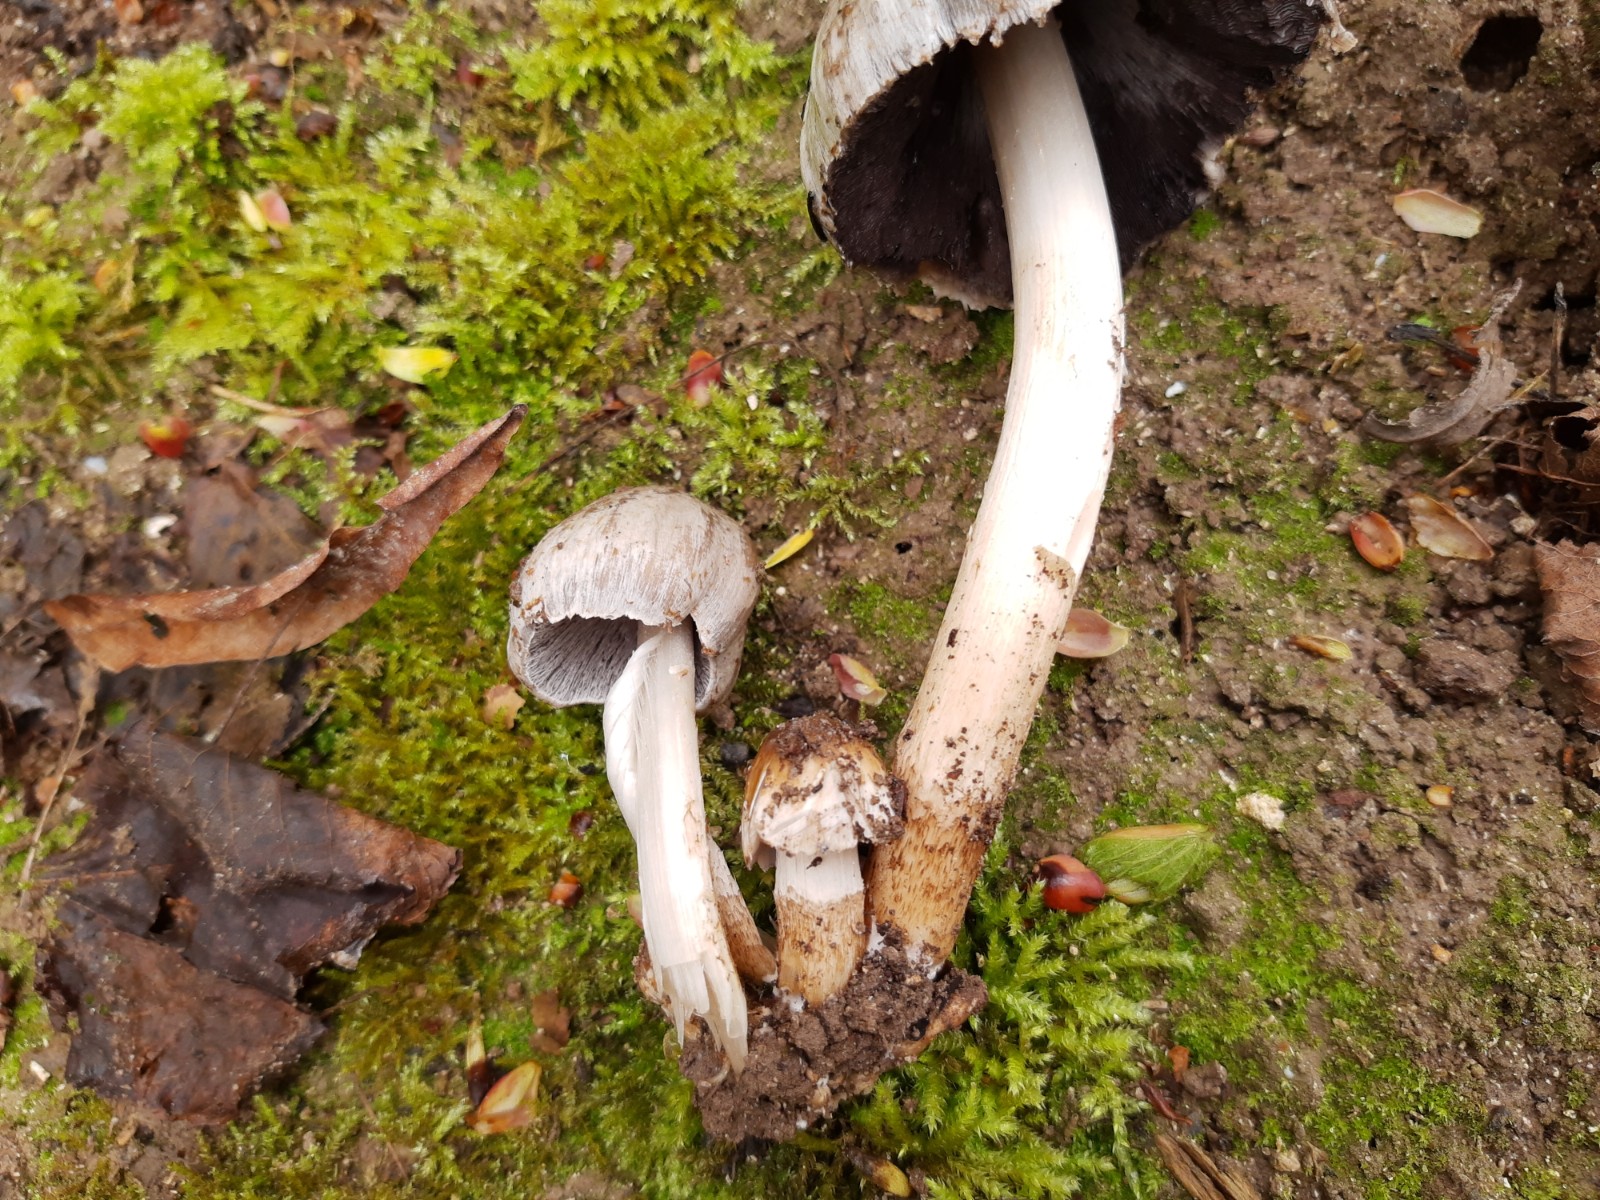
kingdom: Fungi
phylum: Basidiomycota
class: Agaricomycetes
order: Agaricales
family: Psathyrellaceae
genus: Coprinopsis
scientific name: Coprinopsis romagnesiana
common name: brunskællet blækhat
